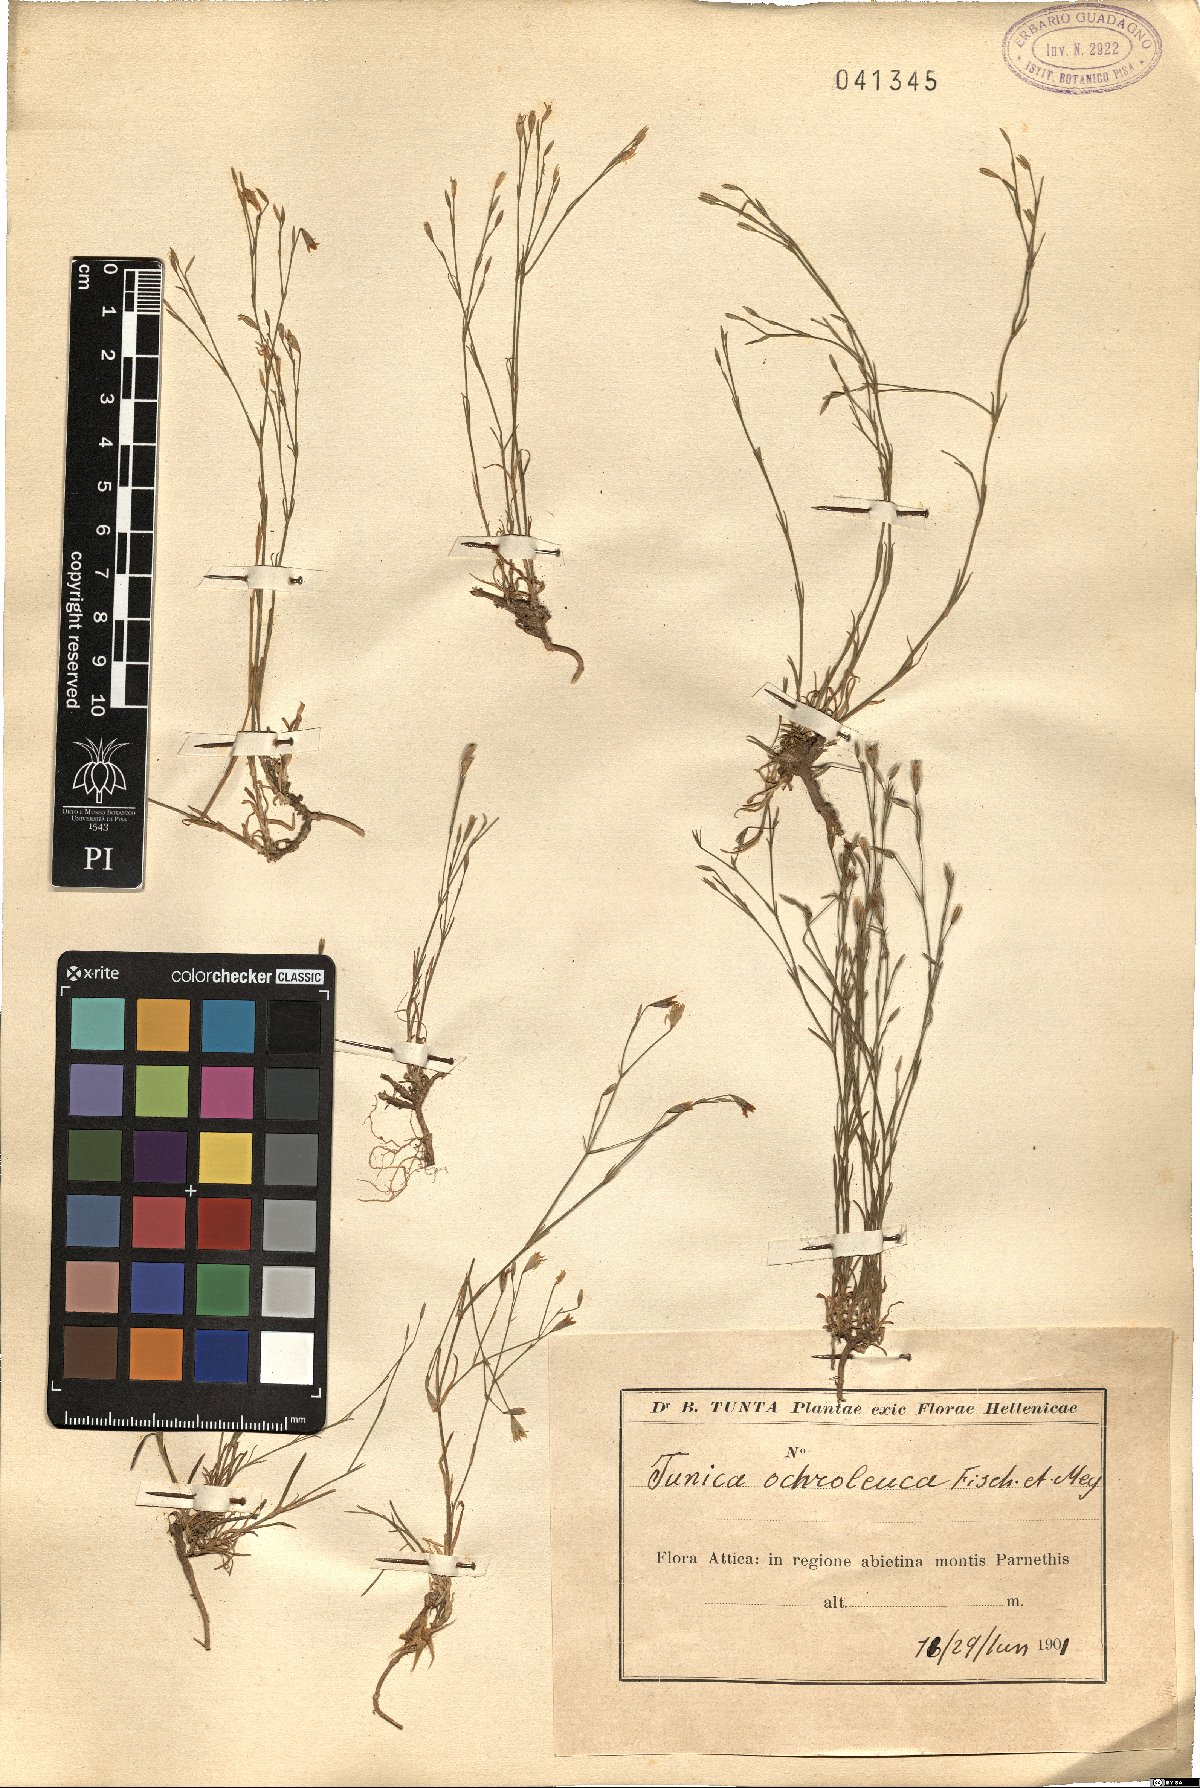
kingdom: Plantae
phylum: Tracheophyta
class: Magnoliopsida
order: Caryophyllales
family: Caryophyllaceae
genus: Petrorhagia
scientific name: Petrorhagia ochroleuca
